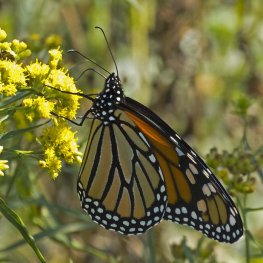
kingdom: Animalia
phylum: Arthropoda
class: Insecta
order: Lepidoptera
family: Nymphalidae
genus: Danaus
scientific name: Danaus plexippus
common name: Monarch
